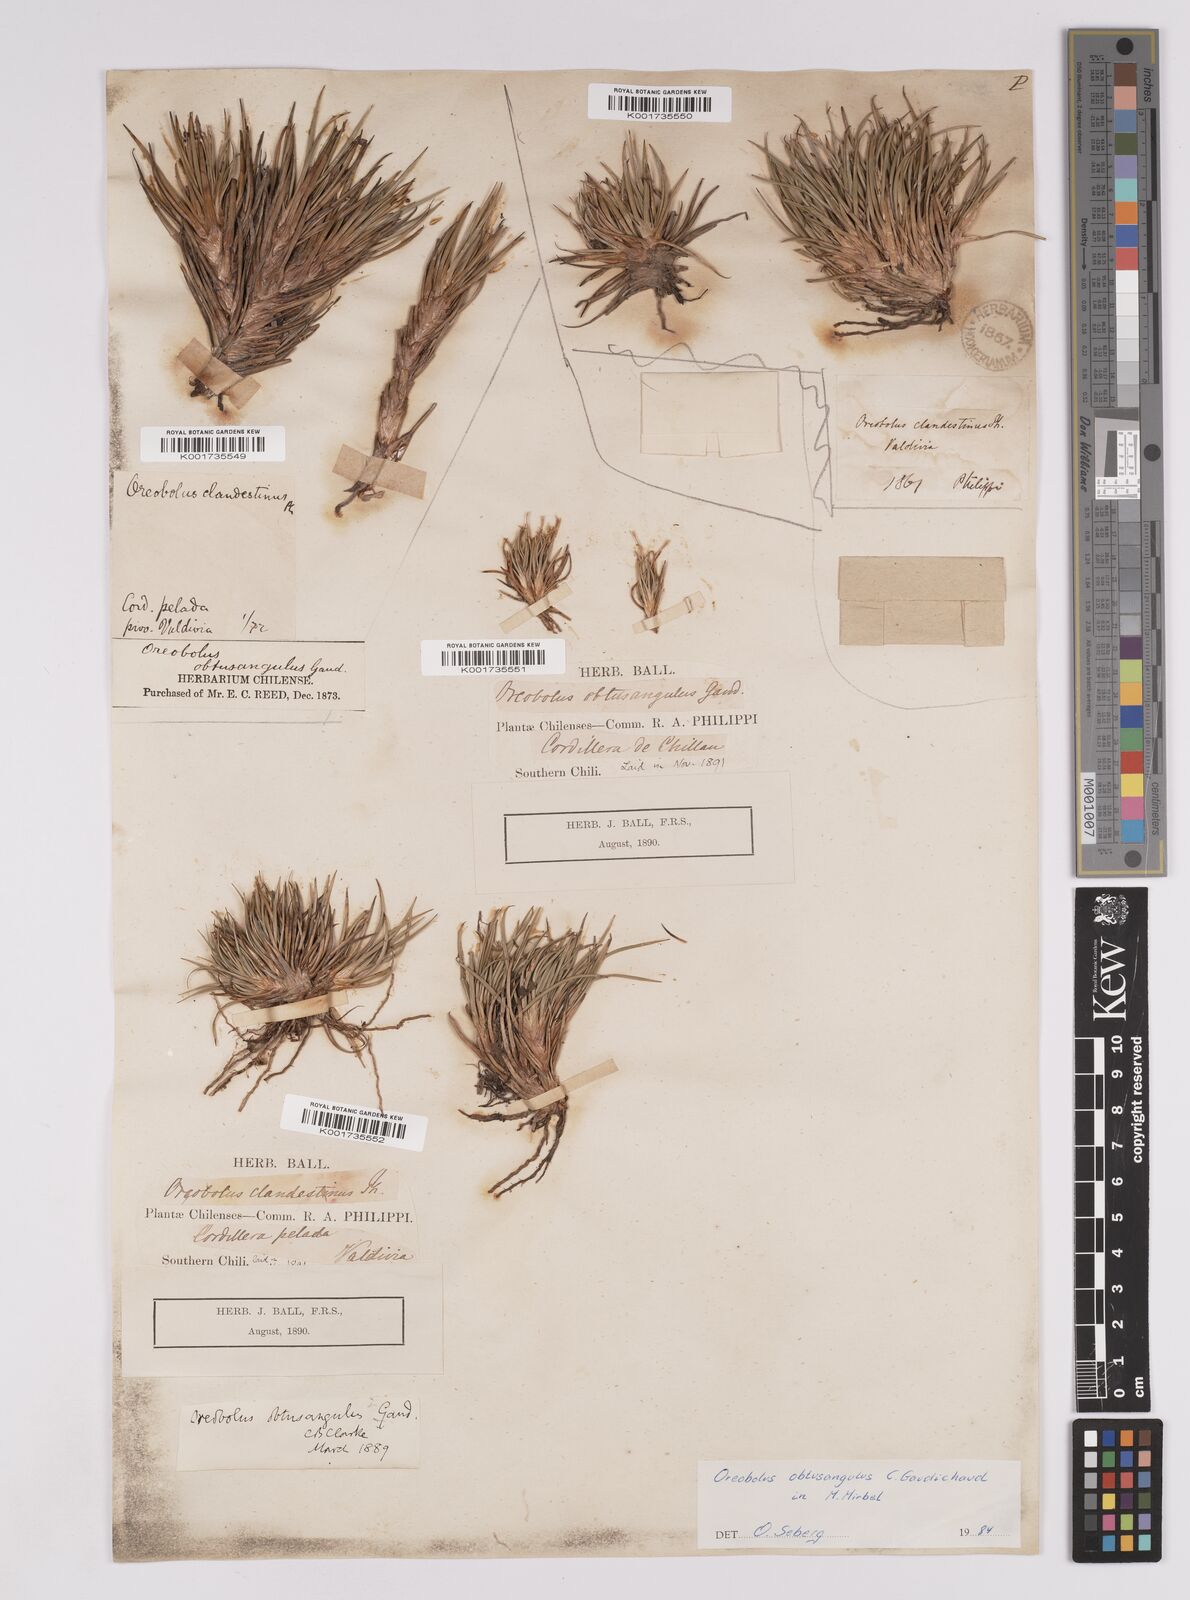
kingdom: Plantae
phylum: Tracheophyta
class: Liliopsida
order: Poales
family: Cyperaceae
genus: Oreobolus
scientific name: Oreobolus obtusangulus
